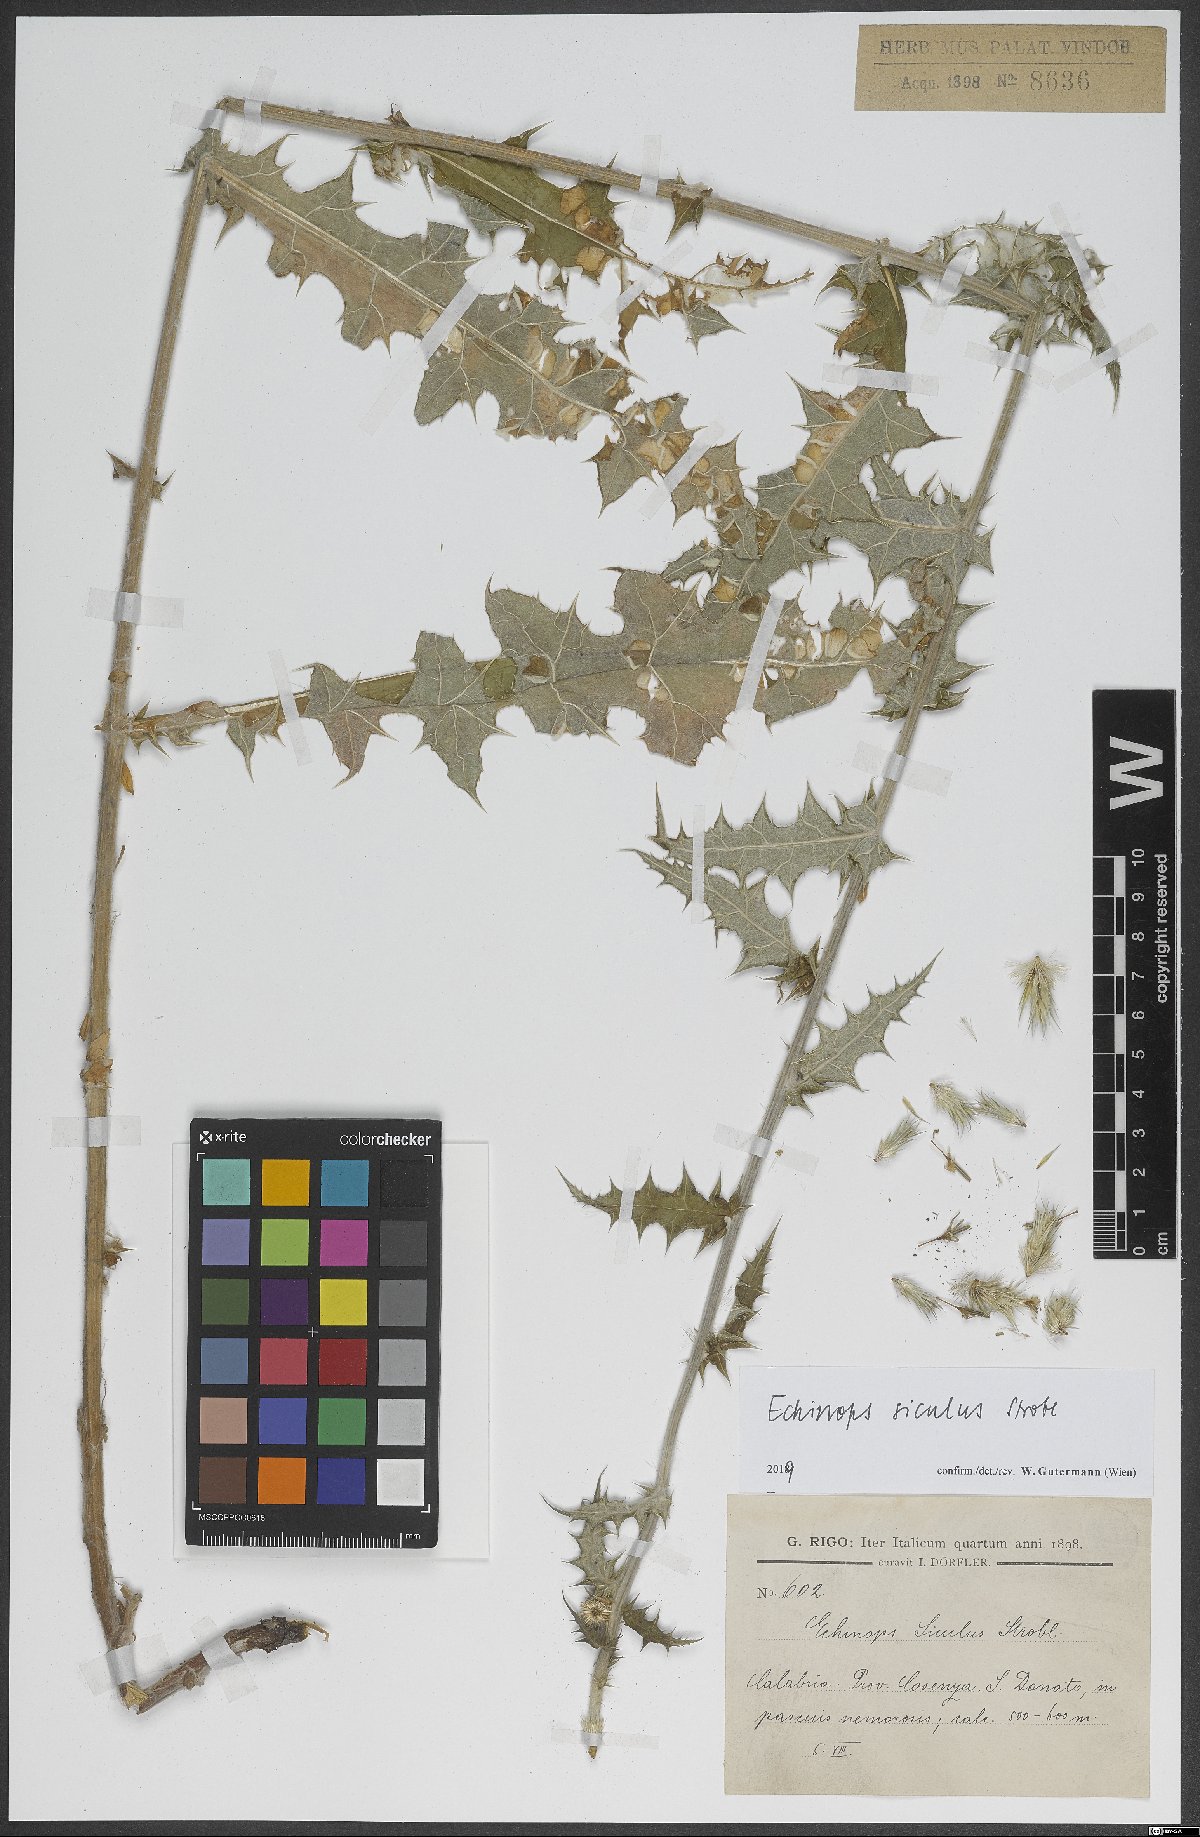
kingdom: Plantae
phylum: Tracheophyta
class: Magnoliopsida
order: Asterales
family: Asteraceae
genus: Echinops
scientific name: Echinops ritro
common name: Globe thistle
